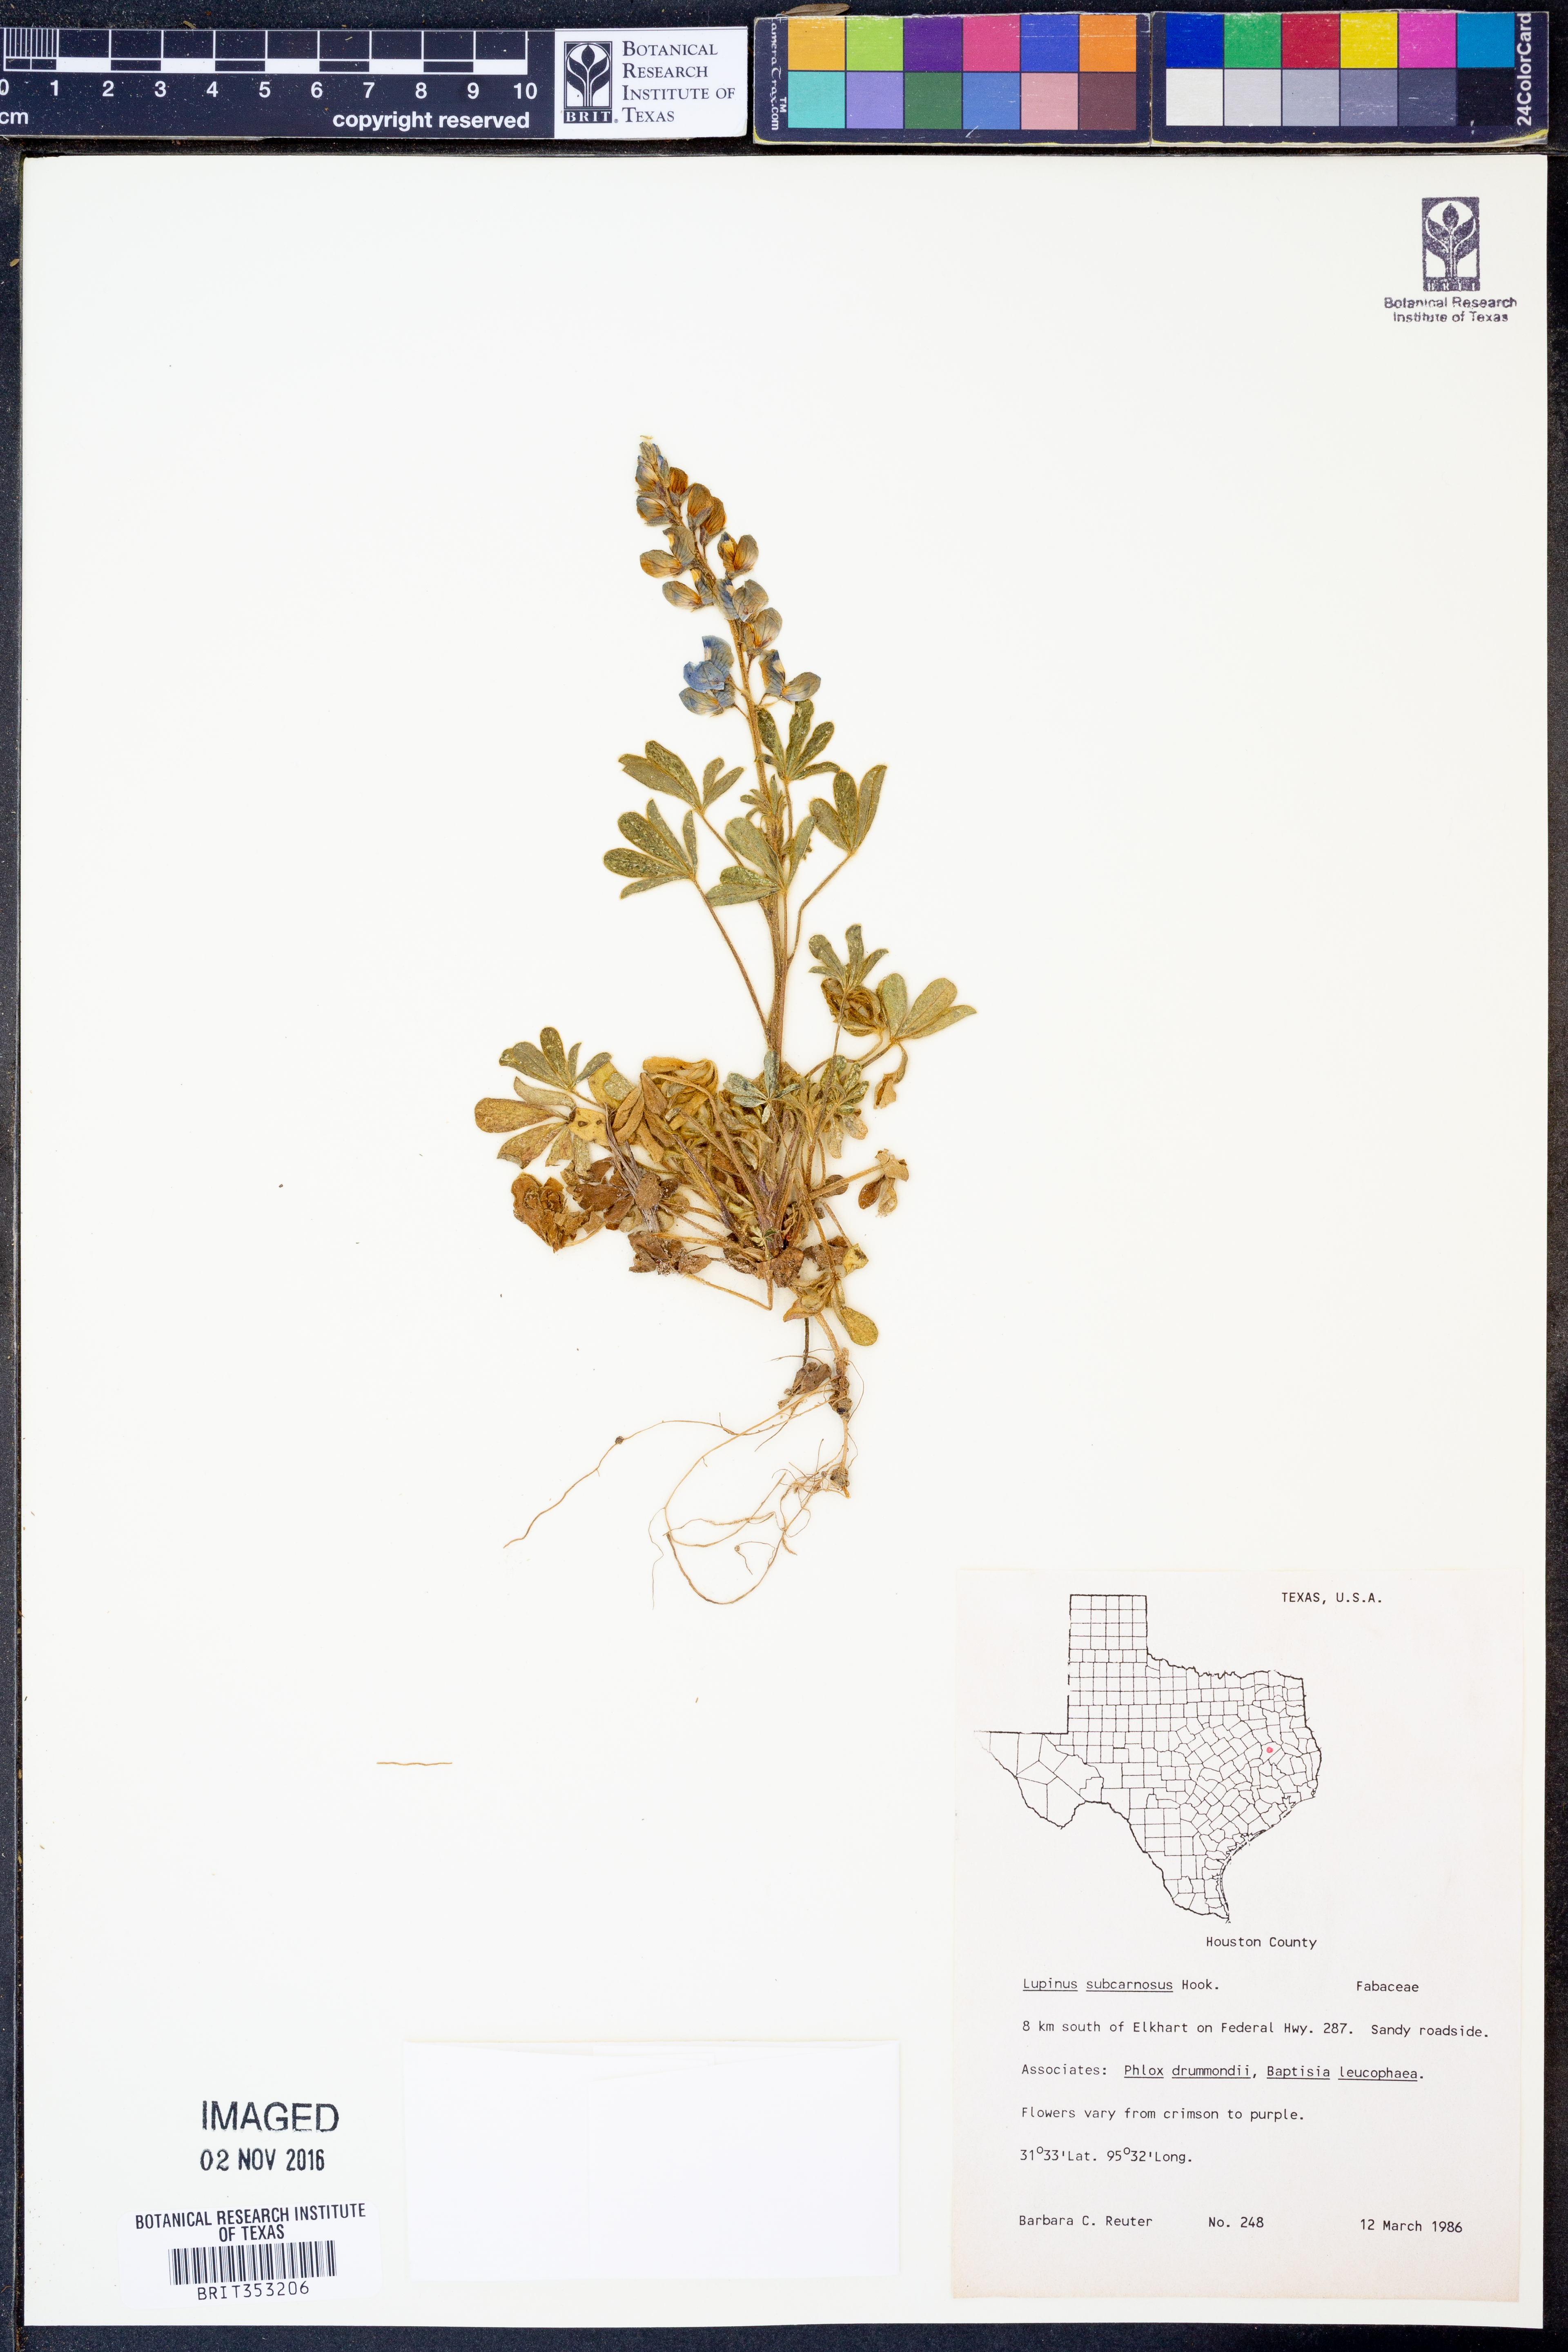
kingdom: Plantae
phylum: Tracheophyta
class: Magnoliopsida
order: Fabales
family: Fabaceae
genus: Lupinus
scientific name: Lupinus subcarnosus
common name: Texas bluebonnet
